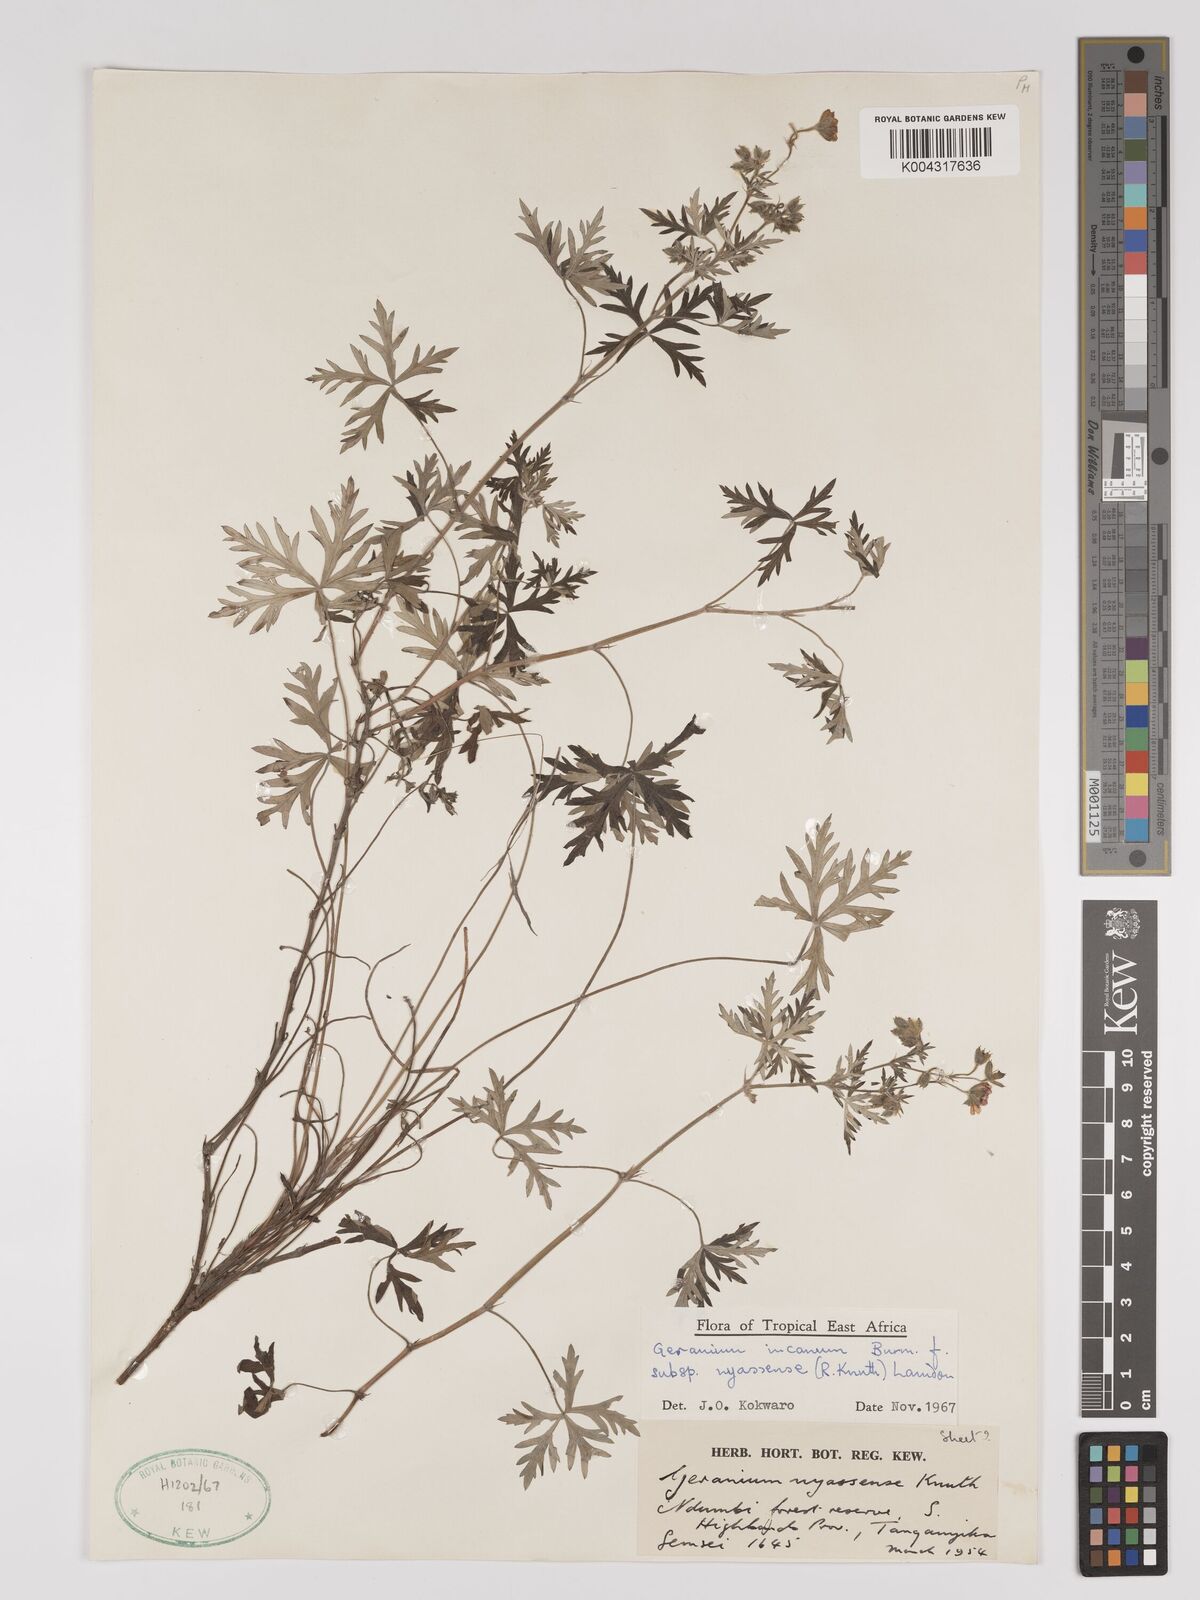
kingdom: Plantae
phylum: Tracheophyta
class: Magnoliopsida
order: Geraniales
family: Geraniaceae
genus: Geranium
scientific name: Geranium incanum
